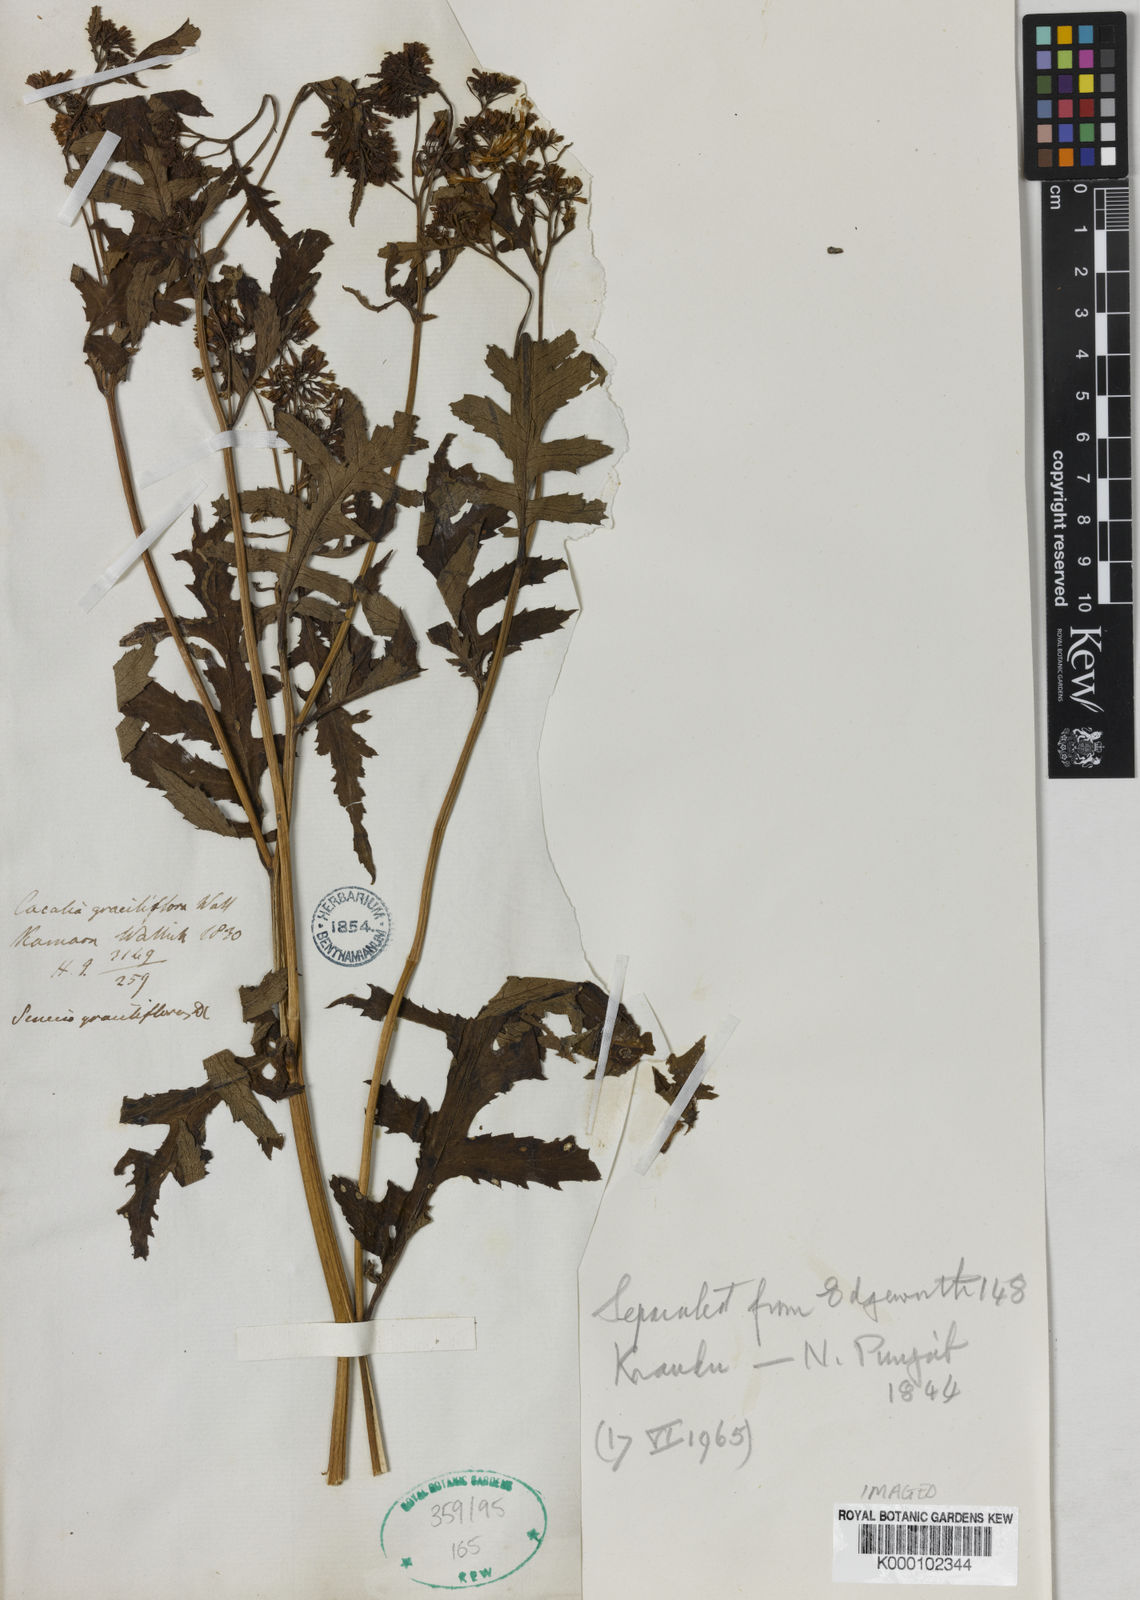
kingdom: Plantae
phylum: Tracheophyta
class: Magnoliopsida
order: Asterales
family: Asteraceae
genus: Jacobaea
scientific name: Jacobaea graciliflora
